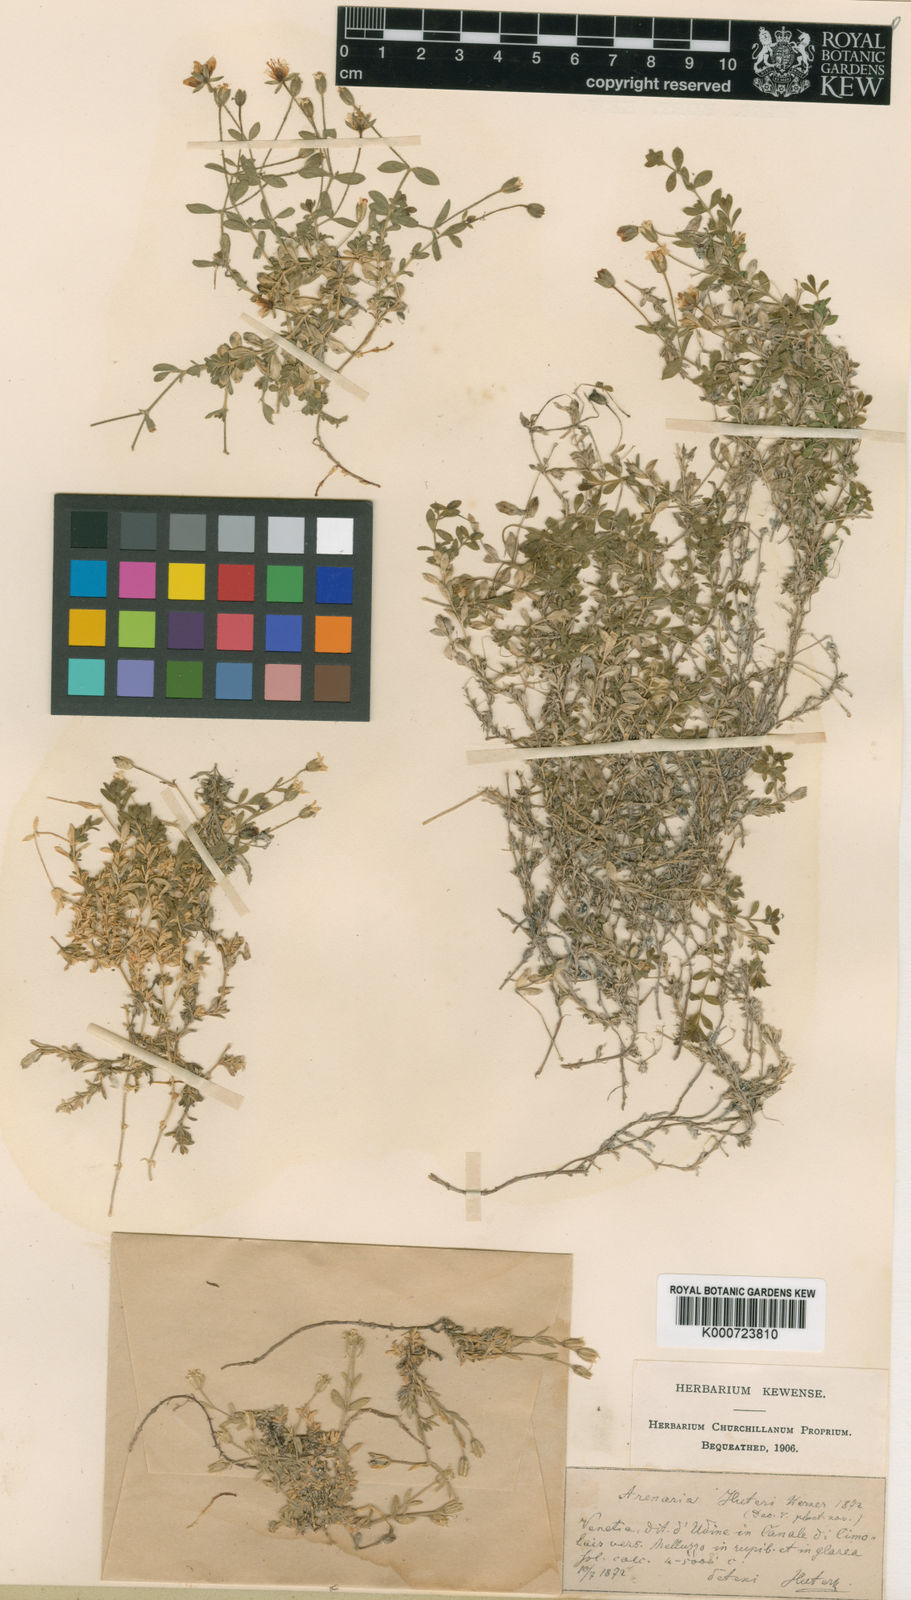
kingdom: Plantae
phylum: Tracheophyta
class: Magnoliopsida
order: Caryophyllales
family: Caryophyllaceae
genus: Arenaria
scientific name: Arenaria huteri
